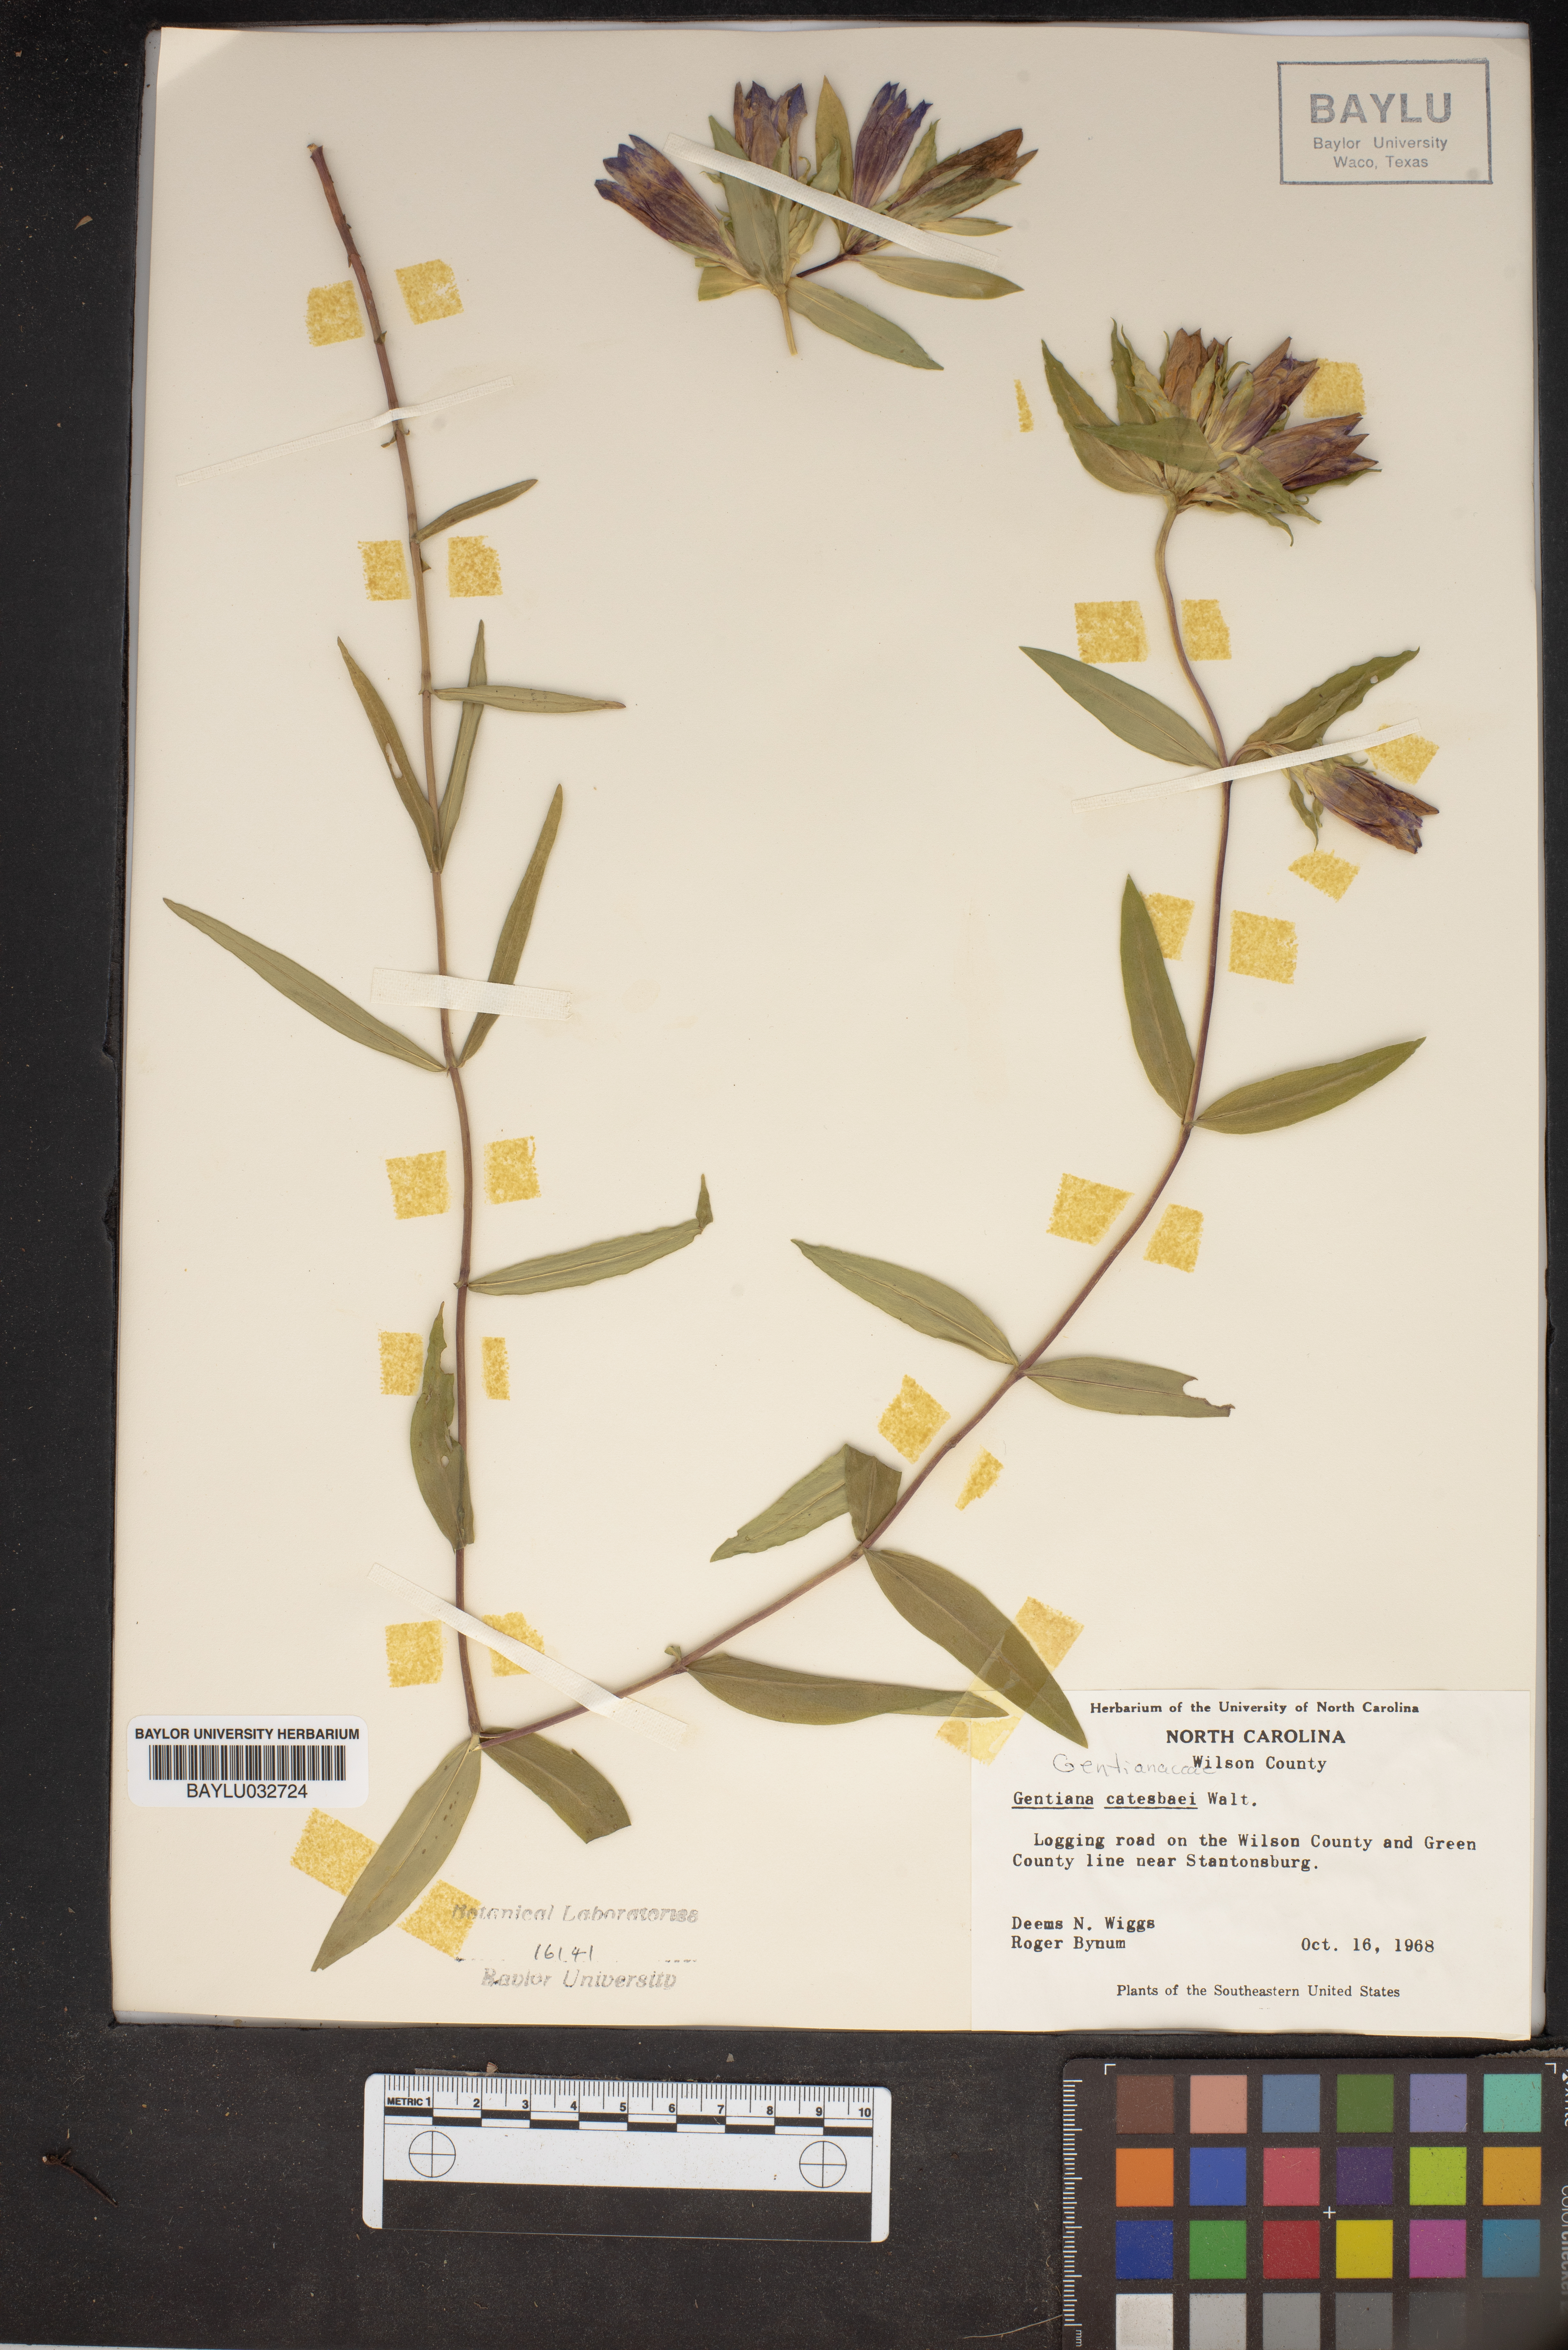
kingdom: Plantae
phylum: Tracheophyta
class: Magnoliopsida
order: Gentianales
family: Gentianaceae
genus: Gentiana
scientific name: Gentiana catesbaei
